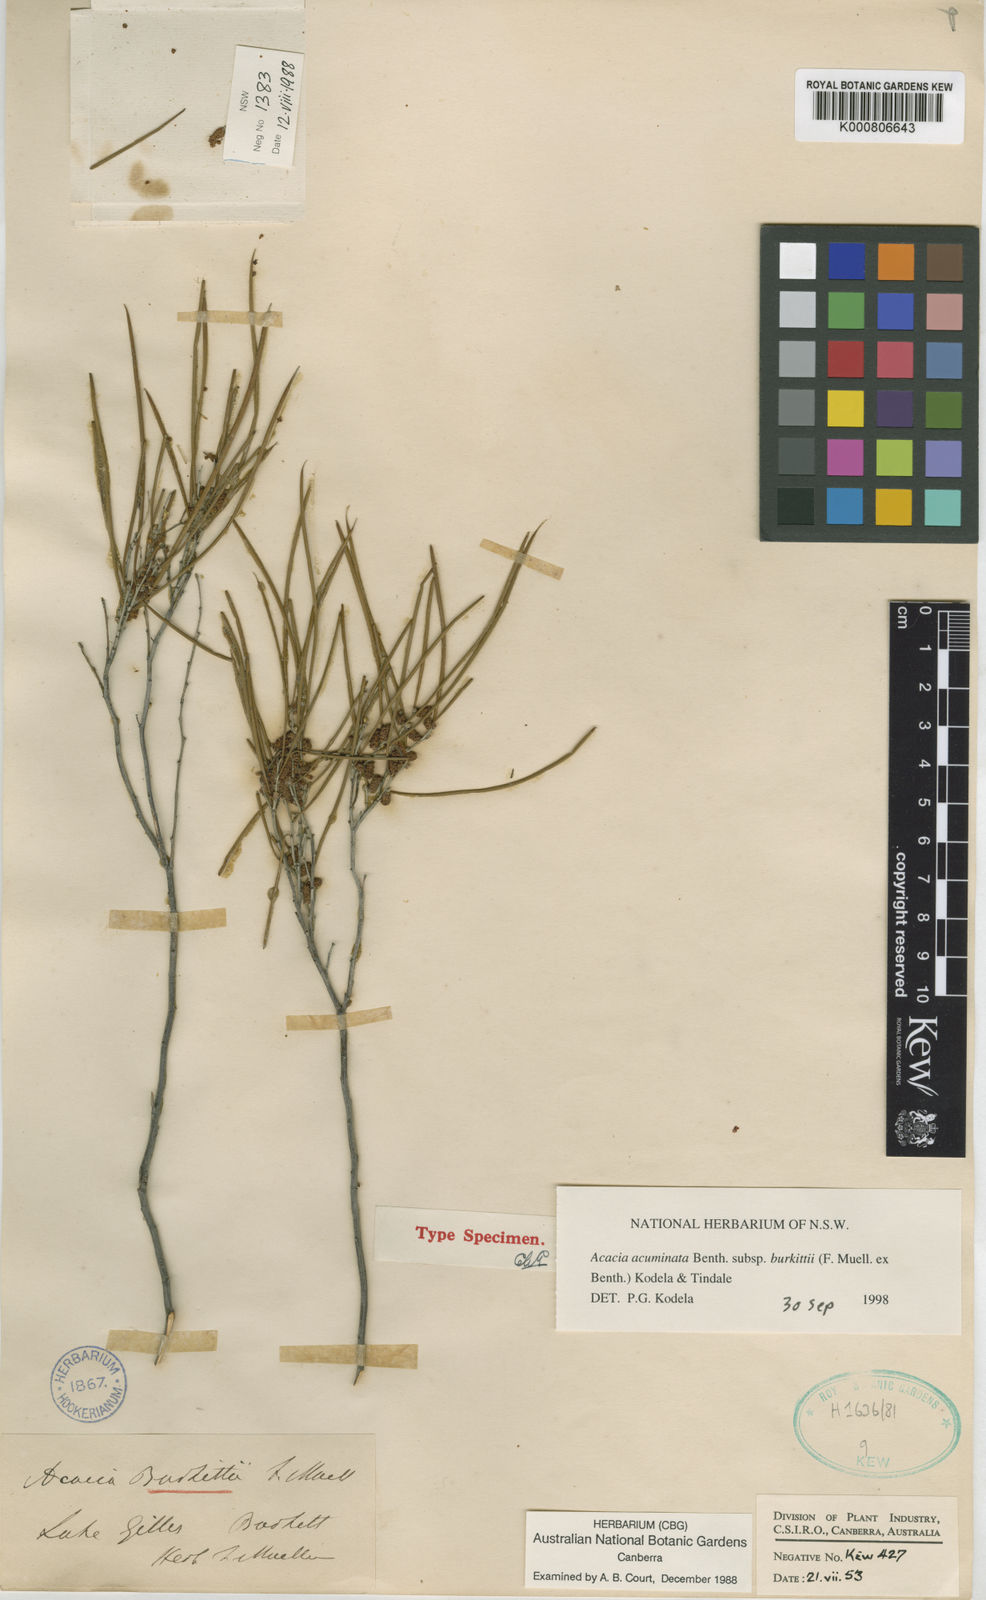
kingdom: Plantae
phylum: Tracheophyta
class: Magnoliopsida
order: Fabales
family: Fabaceae
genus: Acacia
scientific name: Acacia burkittii
